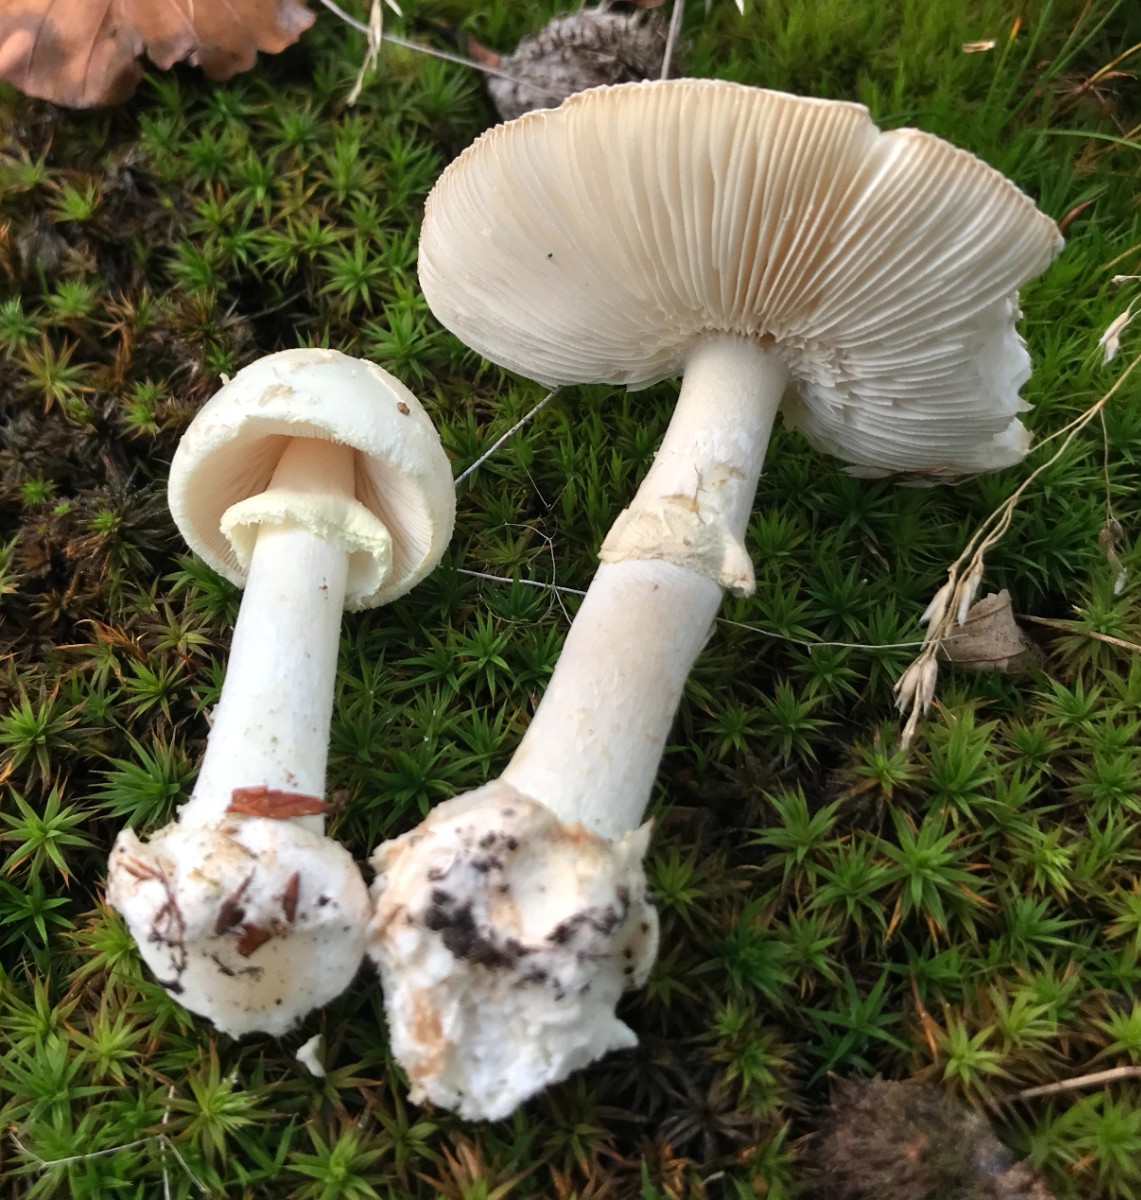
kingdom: Fungi
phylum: Basidiomycota
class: Agaricomycetes
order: Agaricales
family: Amanitaceae
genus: Amanita
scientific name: Amanita citrina
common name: kugleknoldet fluesvamp
